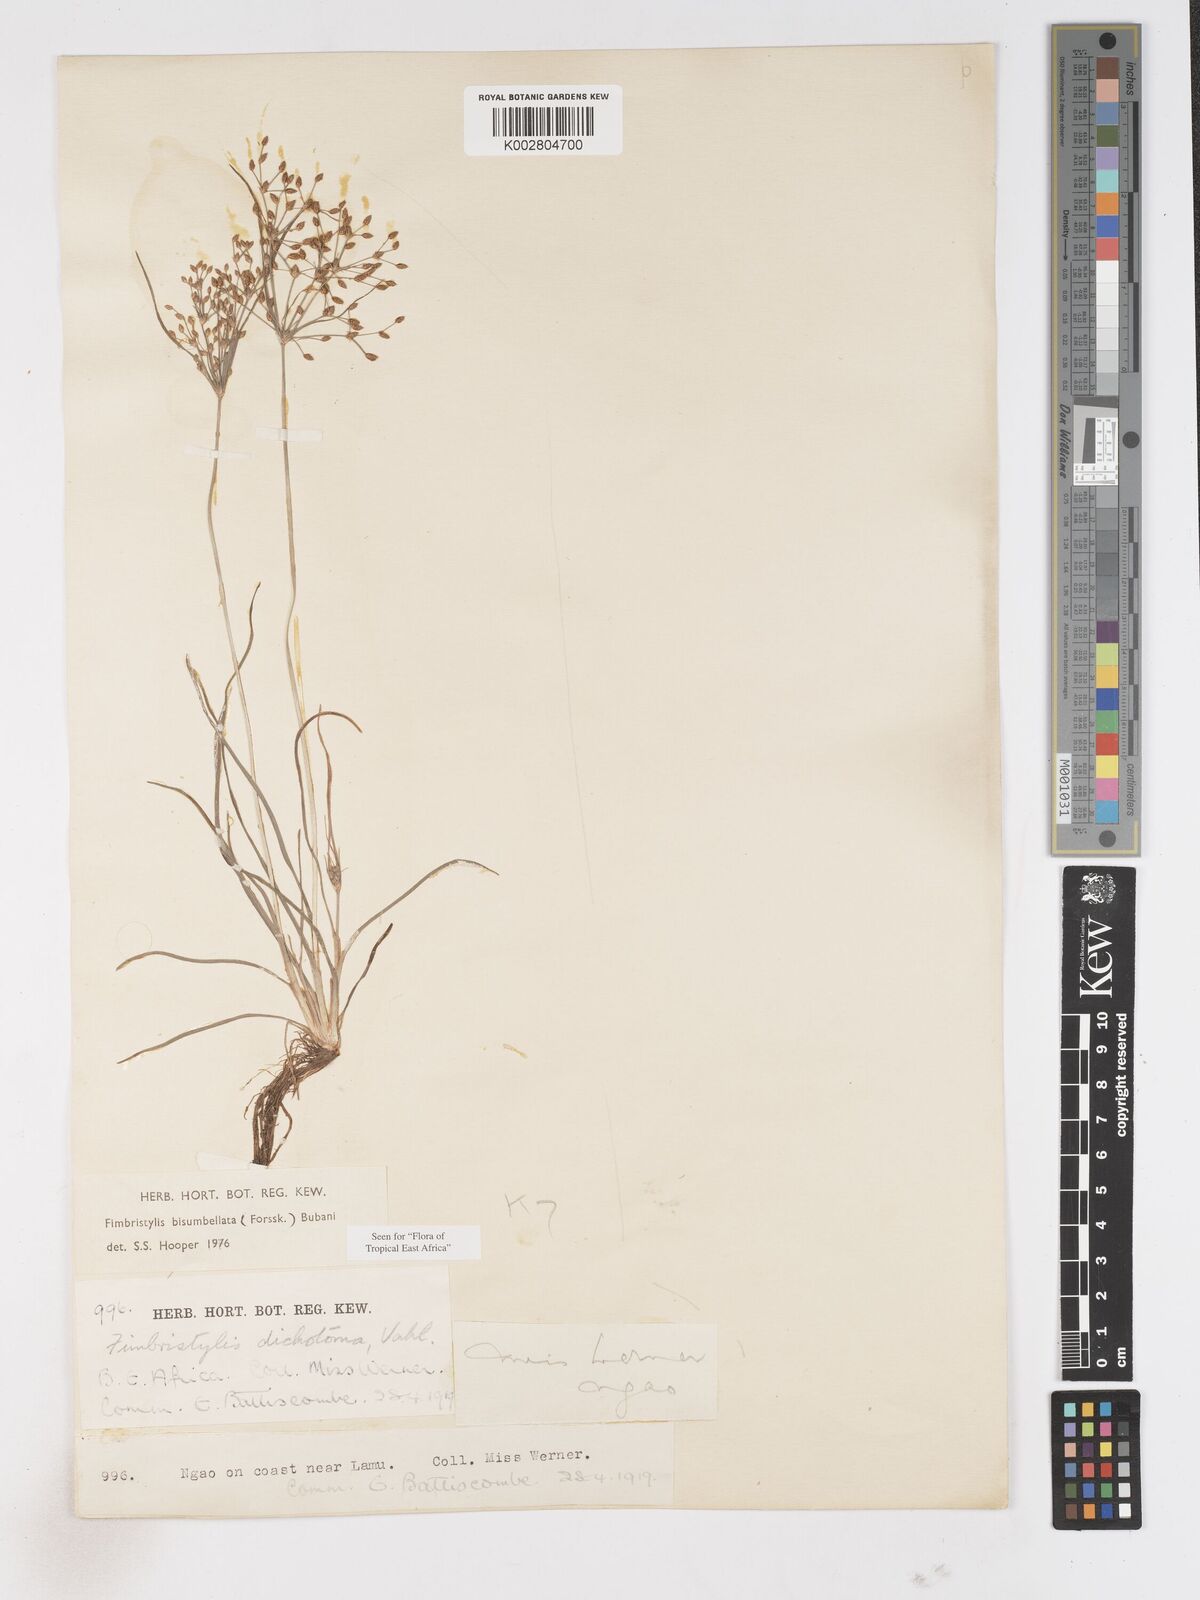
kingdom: Plantae
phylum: Tracheophyta
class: Liliopsida
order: Poales
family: Cyperaceae
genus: Fimbristylis
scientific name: Fimbristylis bisumbellata
